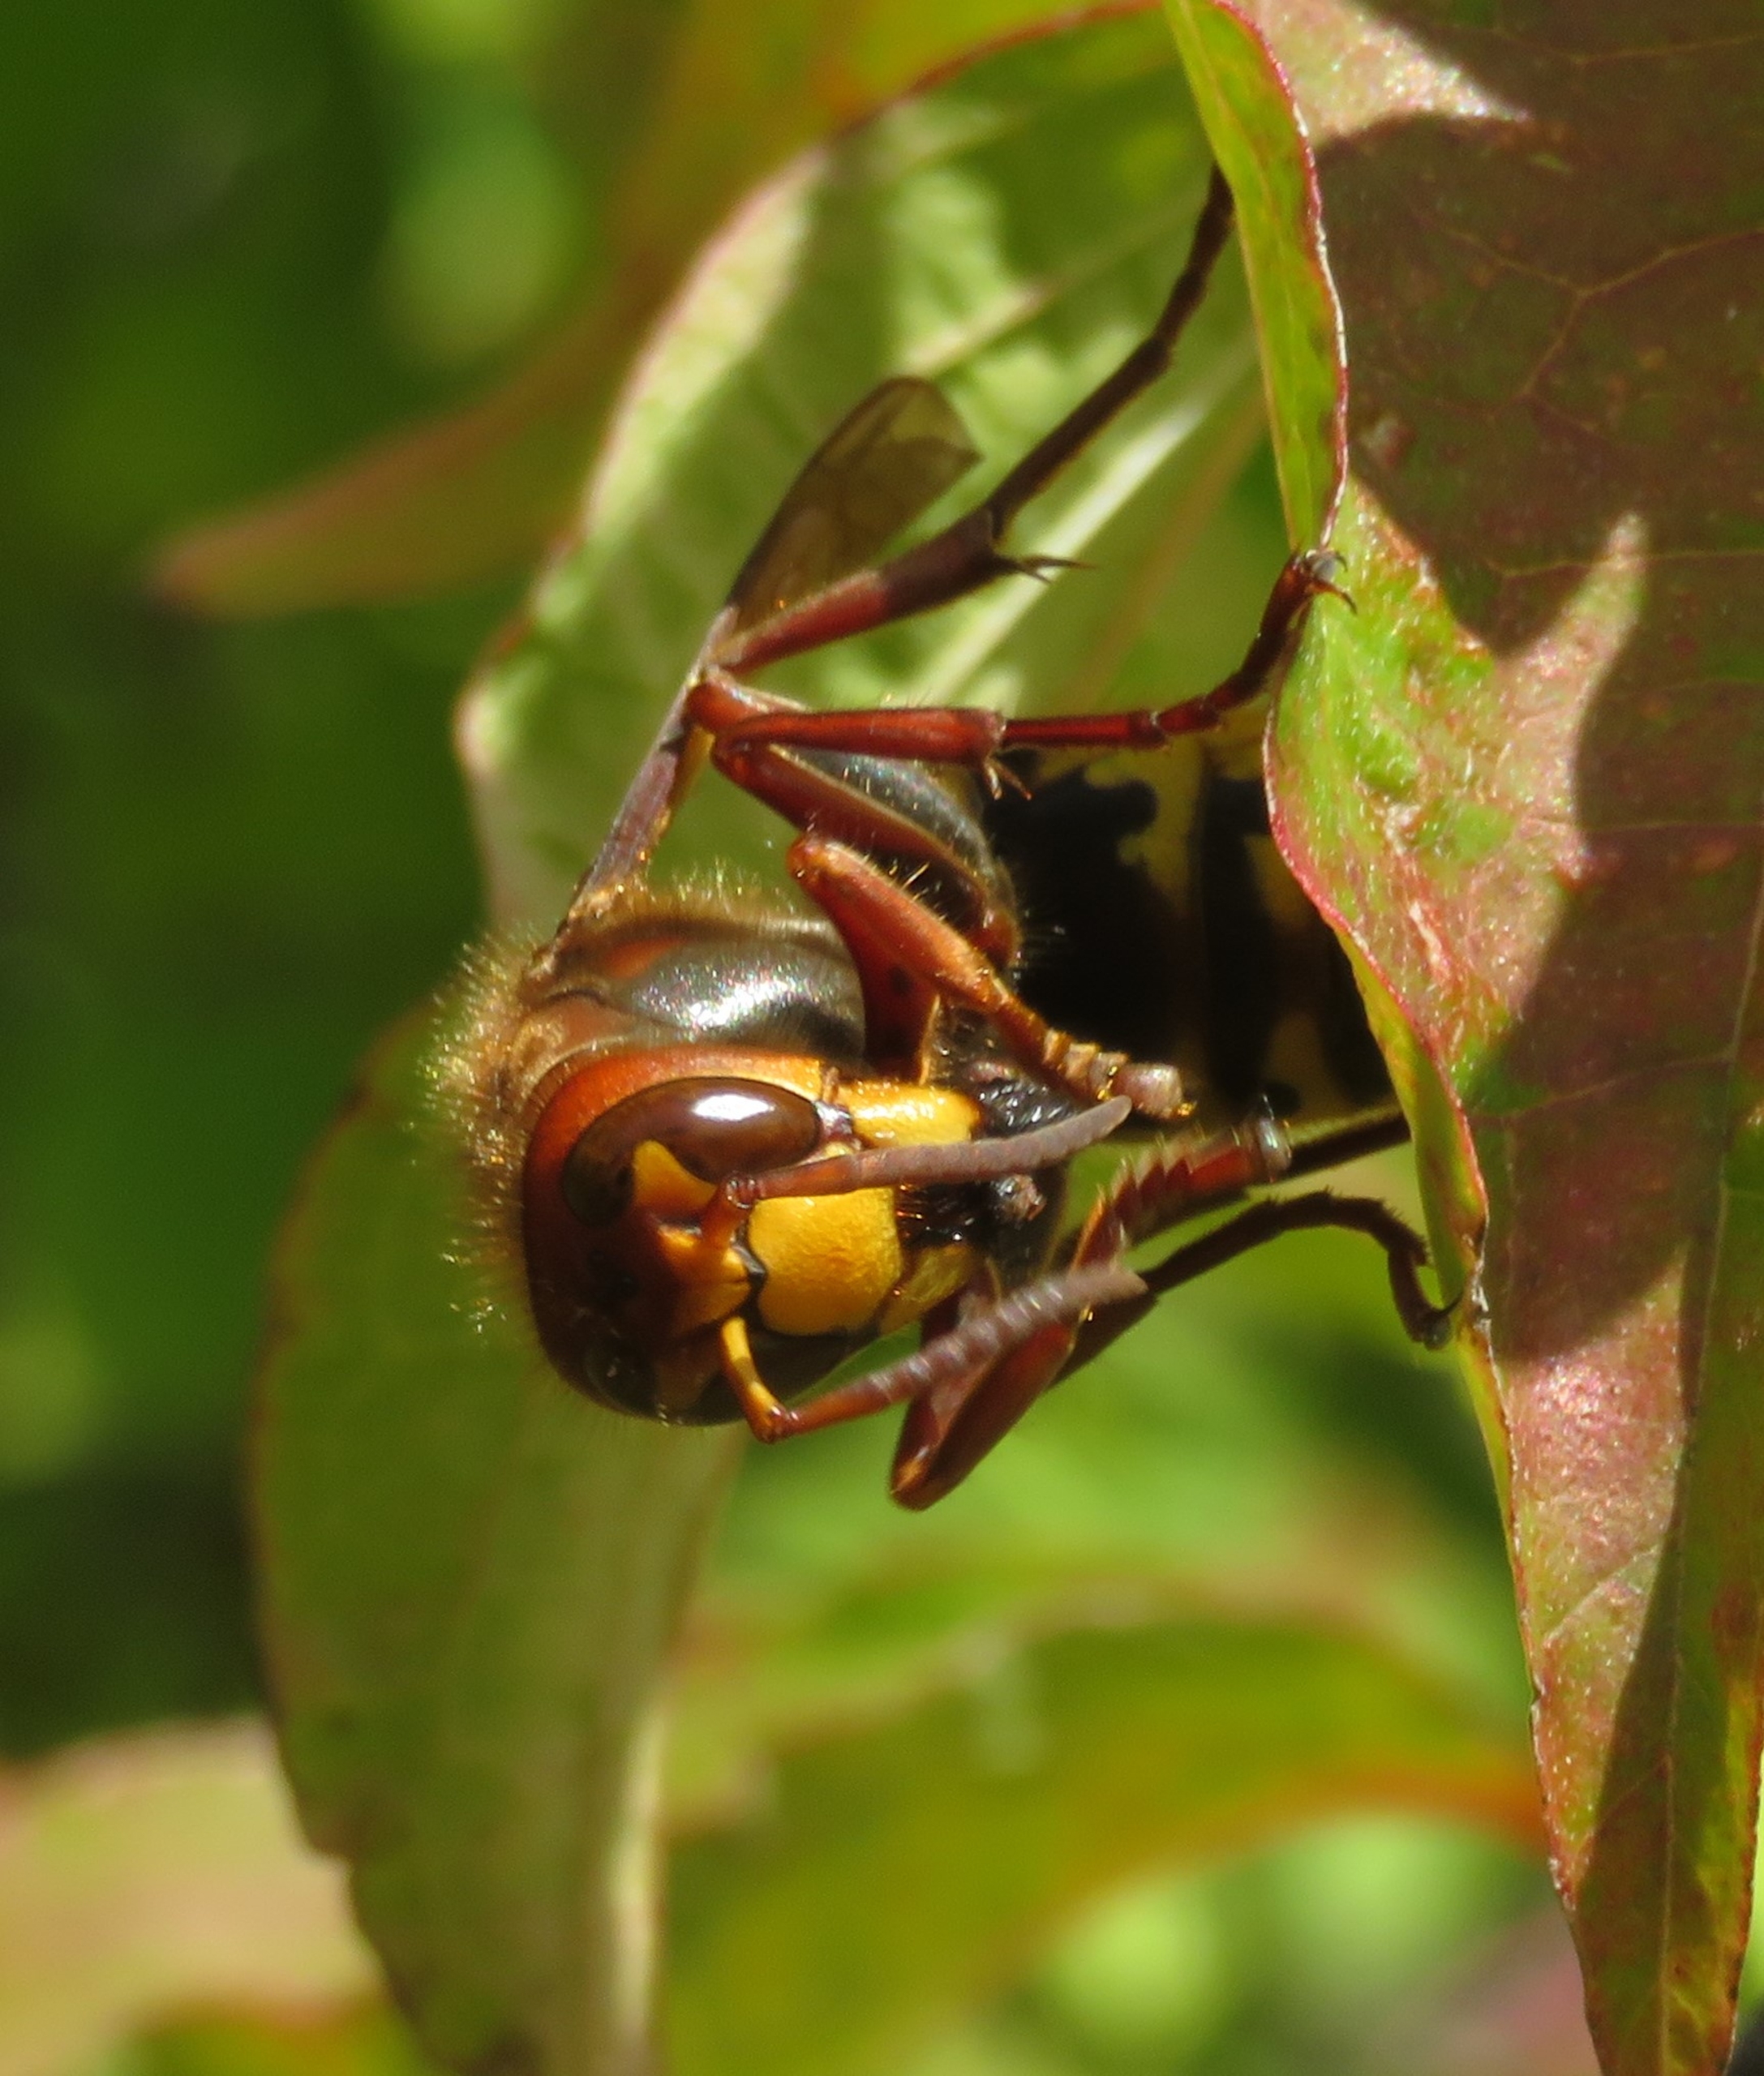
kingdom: Animalia
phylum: Arthropoda
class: Insecta
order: Hymenoptera
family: Vespidae
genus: Vespa
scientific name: Vespa crabro
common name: Stor gedehams
